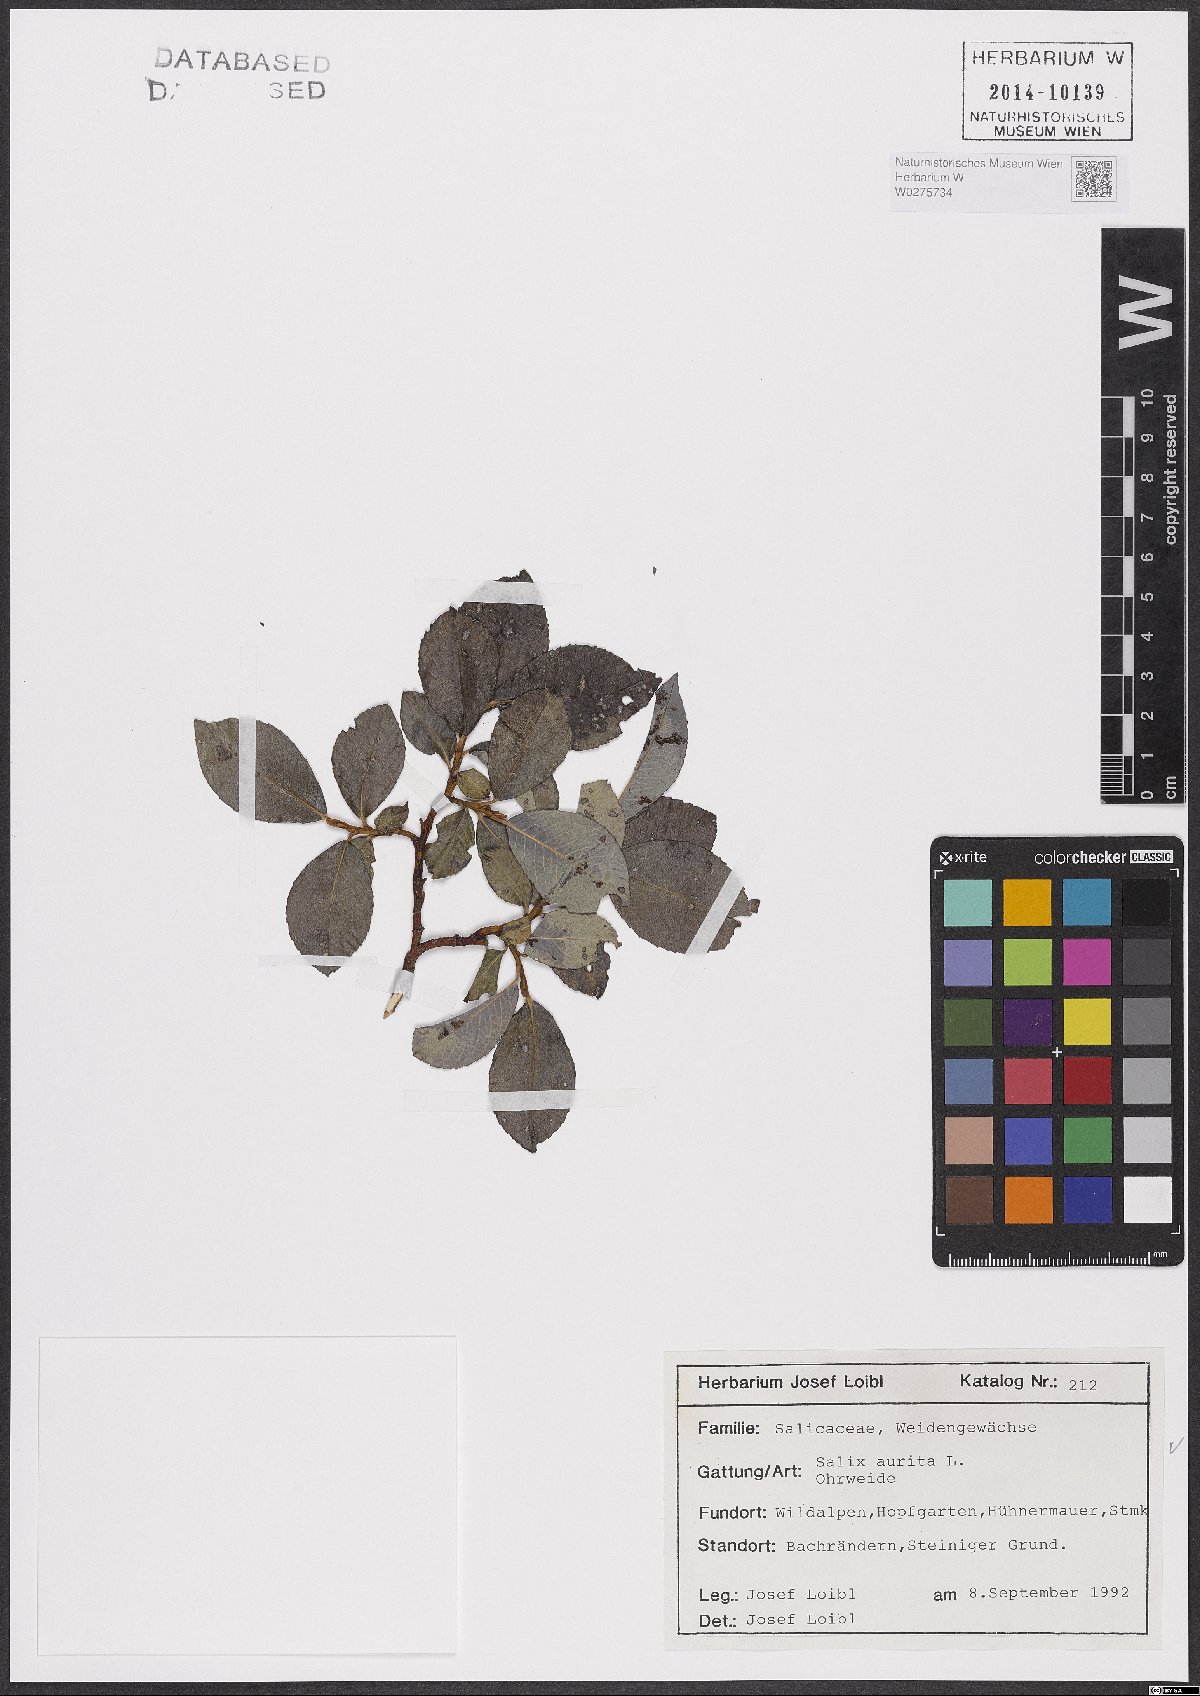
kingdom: Plantae
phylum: Tracheophyta
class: Magnoliopsida
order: Malpighiales
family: Salicaceae
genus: Salix
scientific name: Salix aurita
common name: Eared willow
